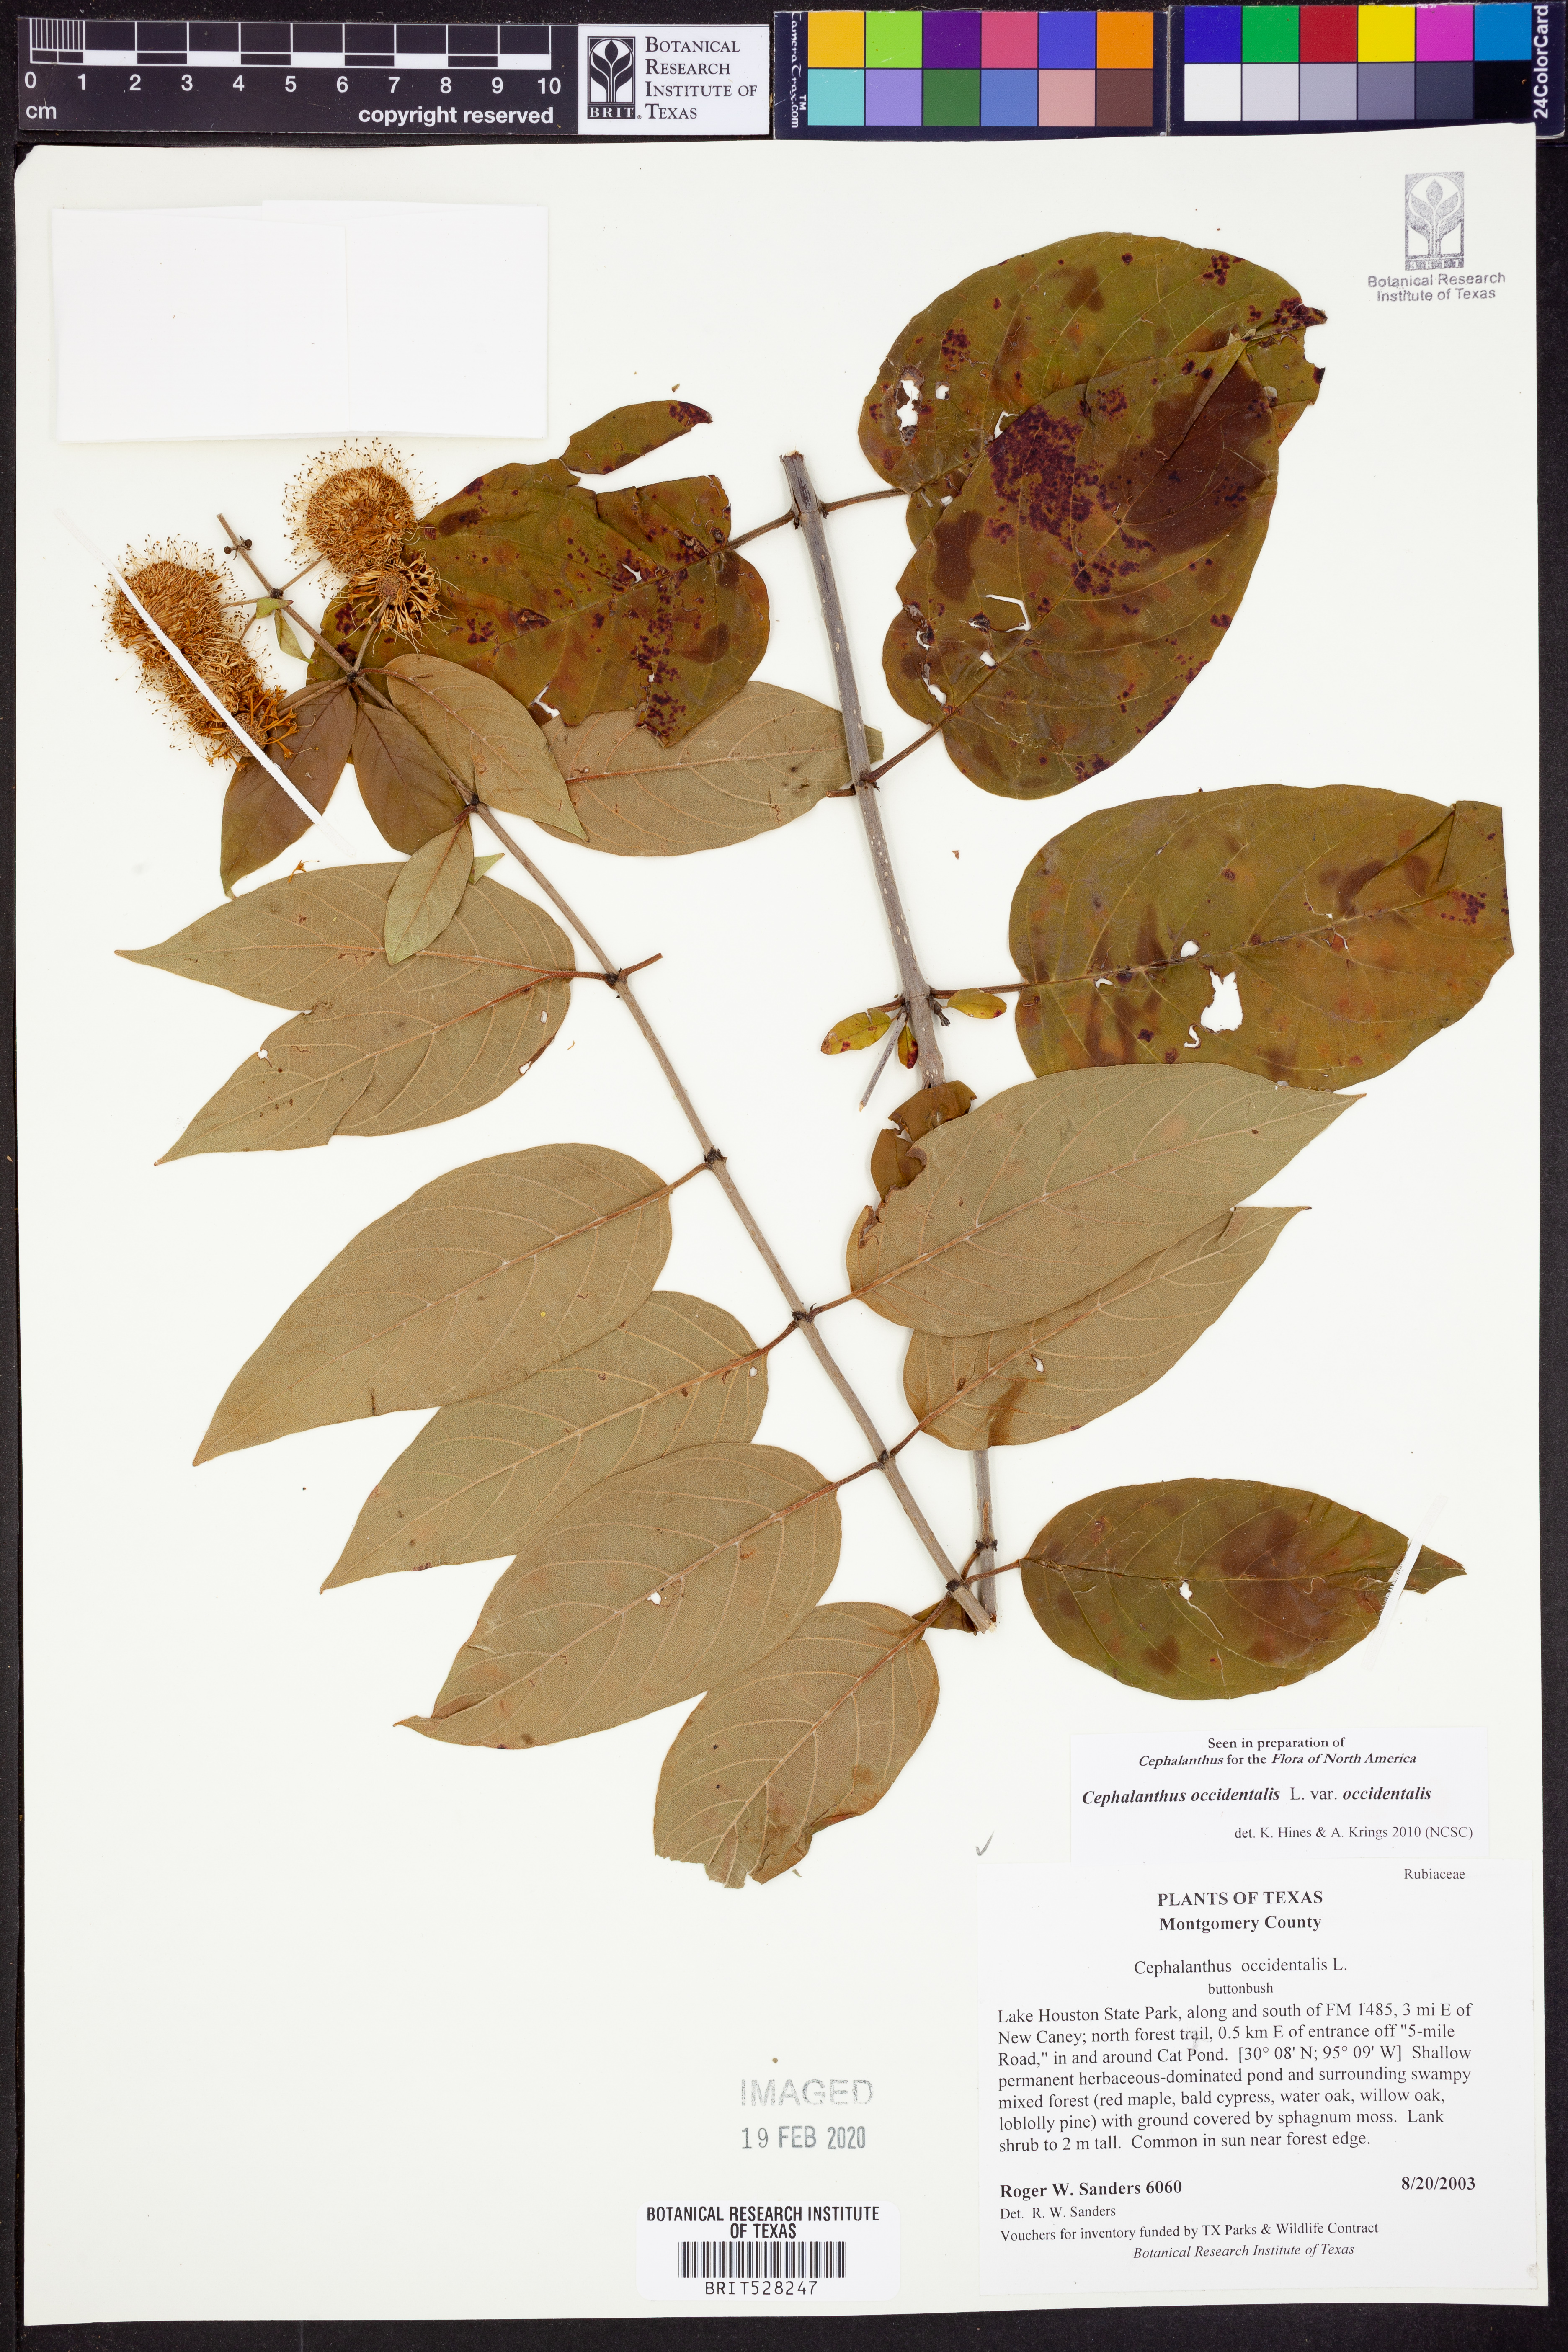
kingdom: Plantae
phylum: Tracheophyta
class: Magnoliopsida
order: Gentianales
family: Rubiaceae
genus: Cephalanthus
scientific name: Cephalanthus occidentalis
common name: Button-willow
